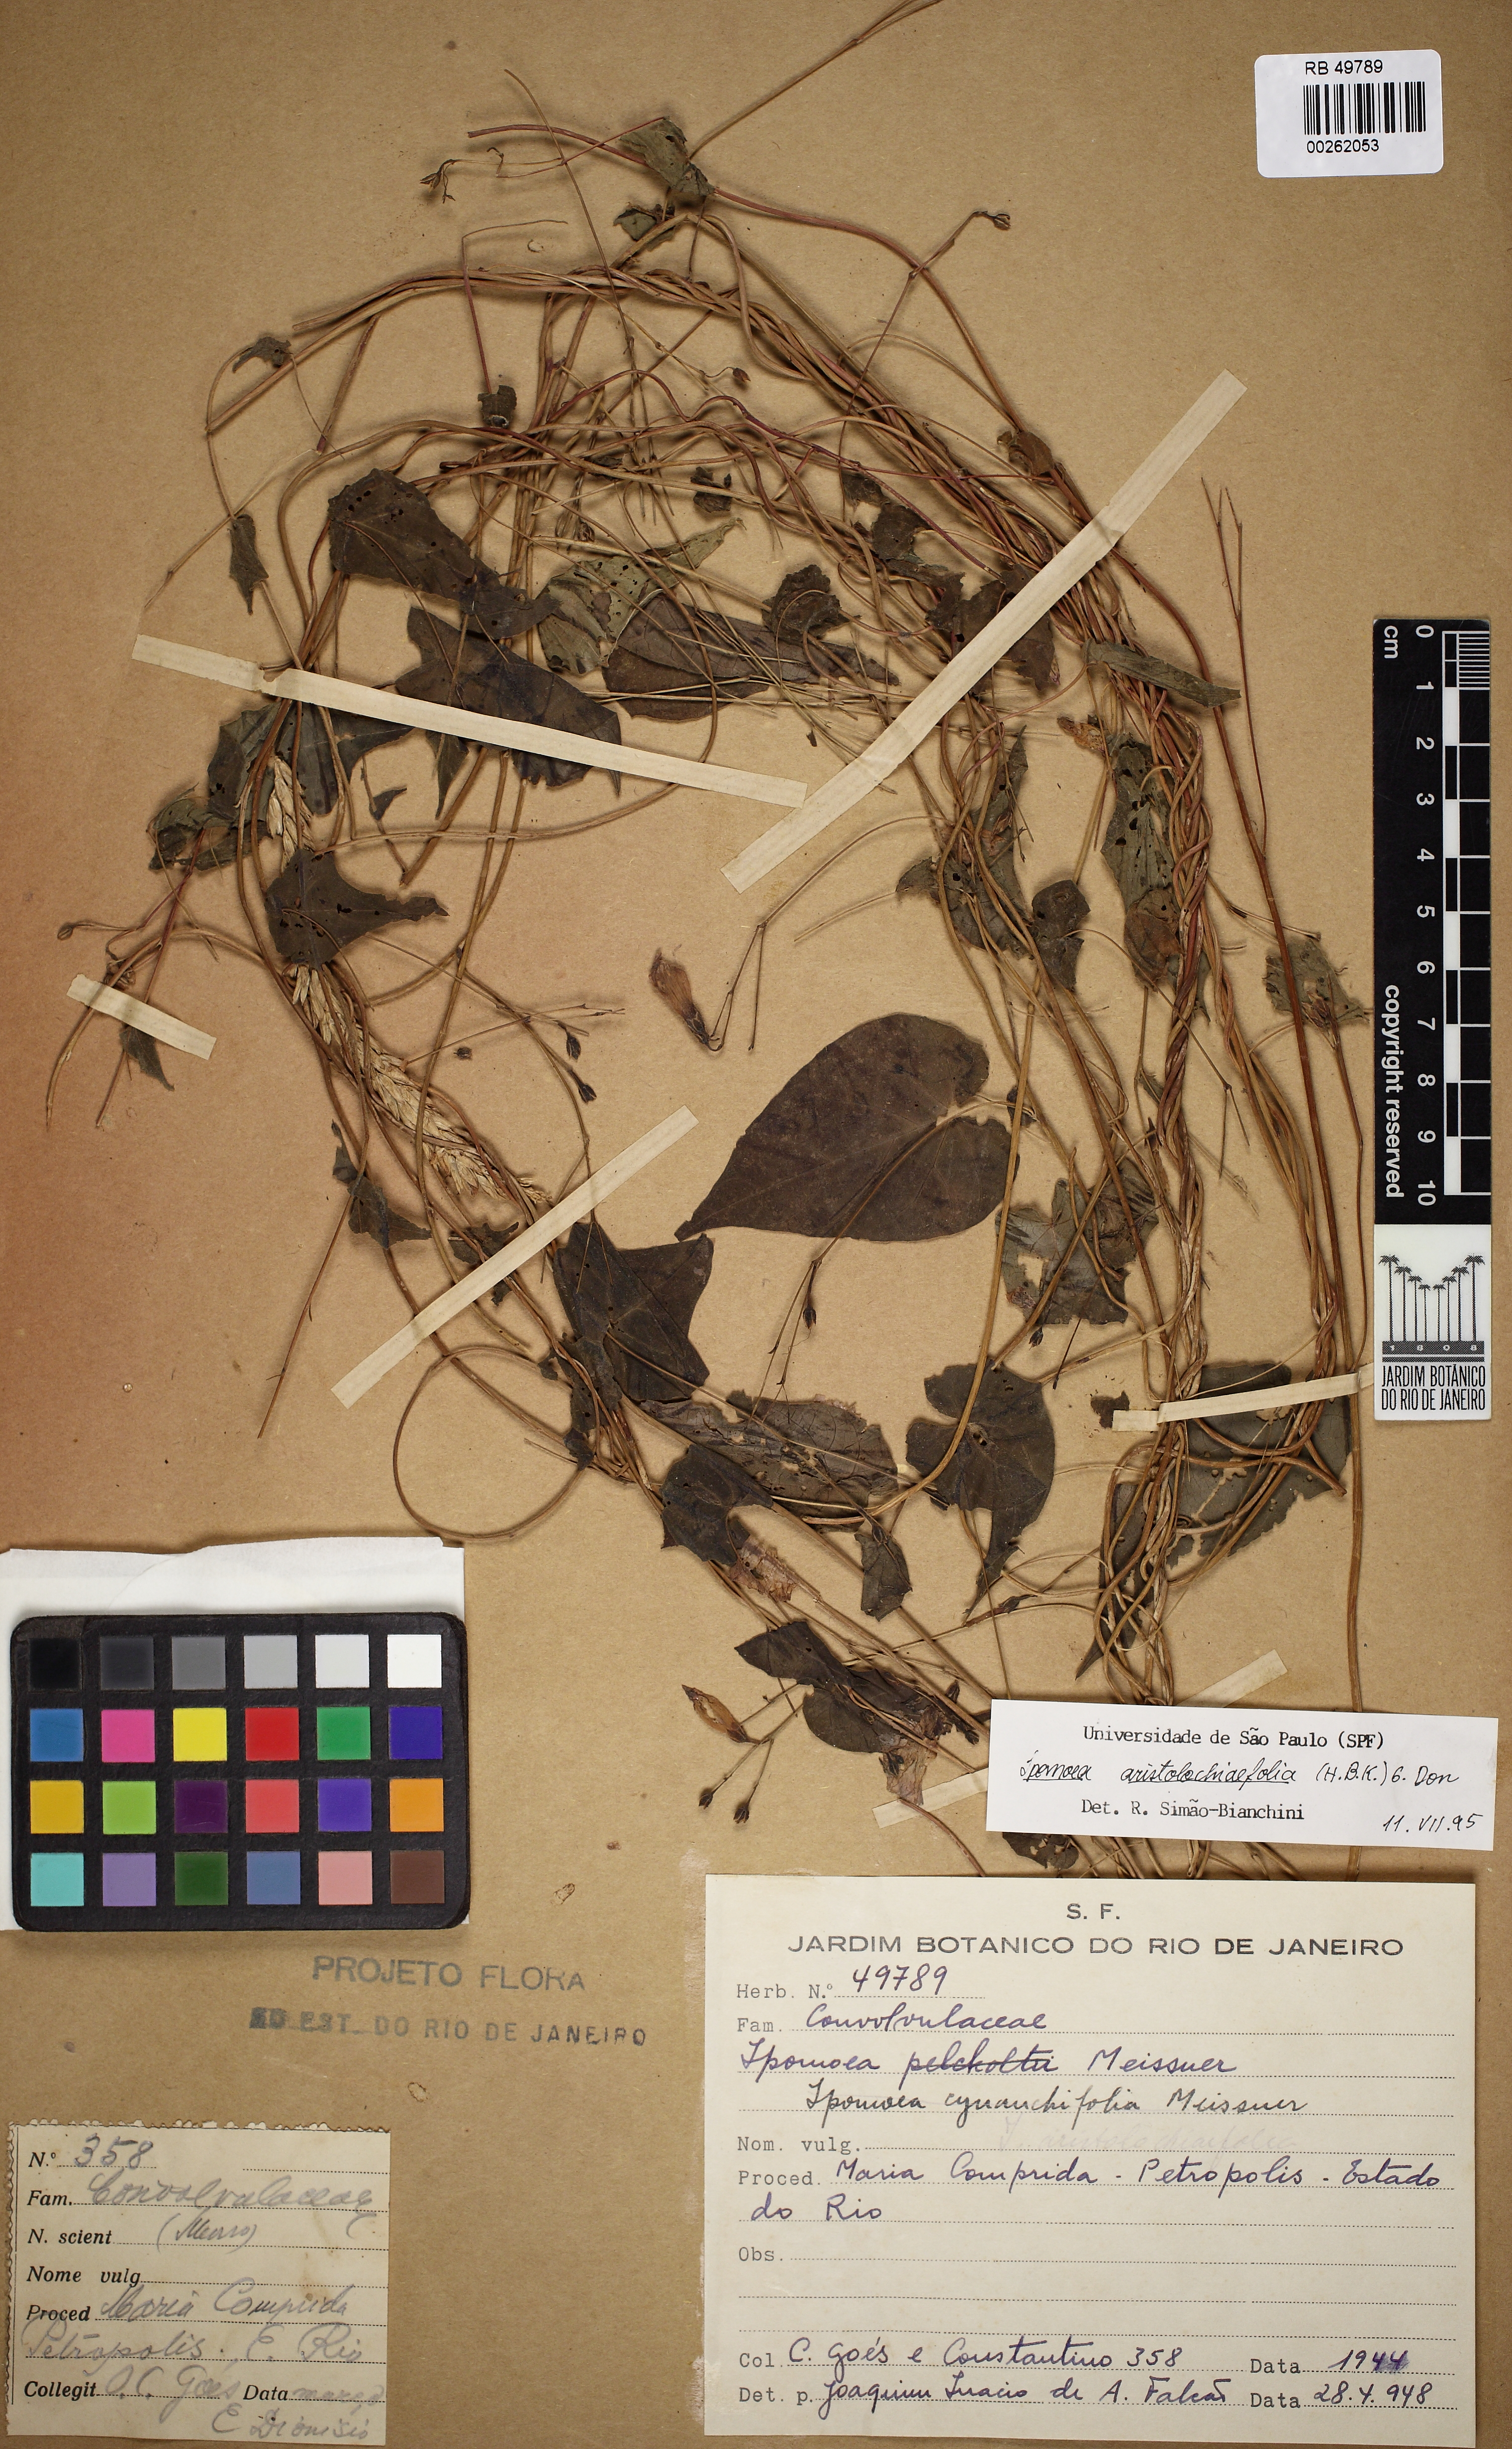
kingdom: Plantae
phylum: Tracheophyta
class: Magnoliopsida
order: Solanales
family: Convolvulaceae
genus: Ipomoea
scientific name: Ipomoea aristolochiifolia
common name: Aristolochia-leaved morning-glory
